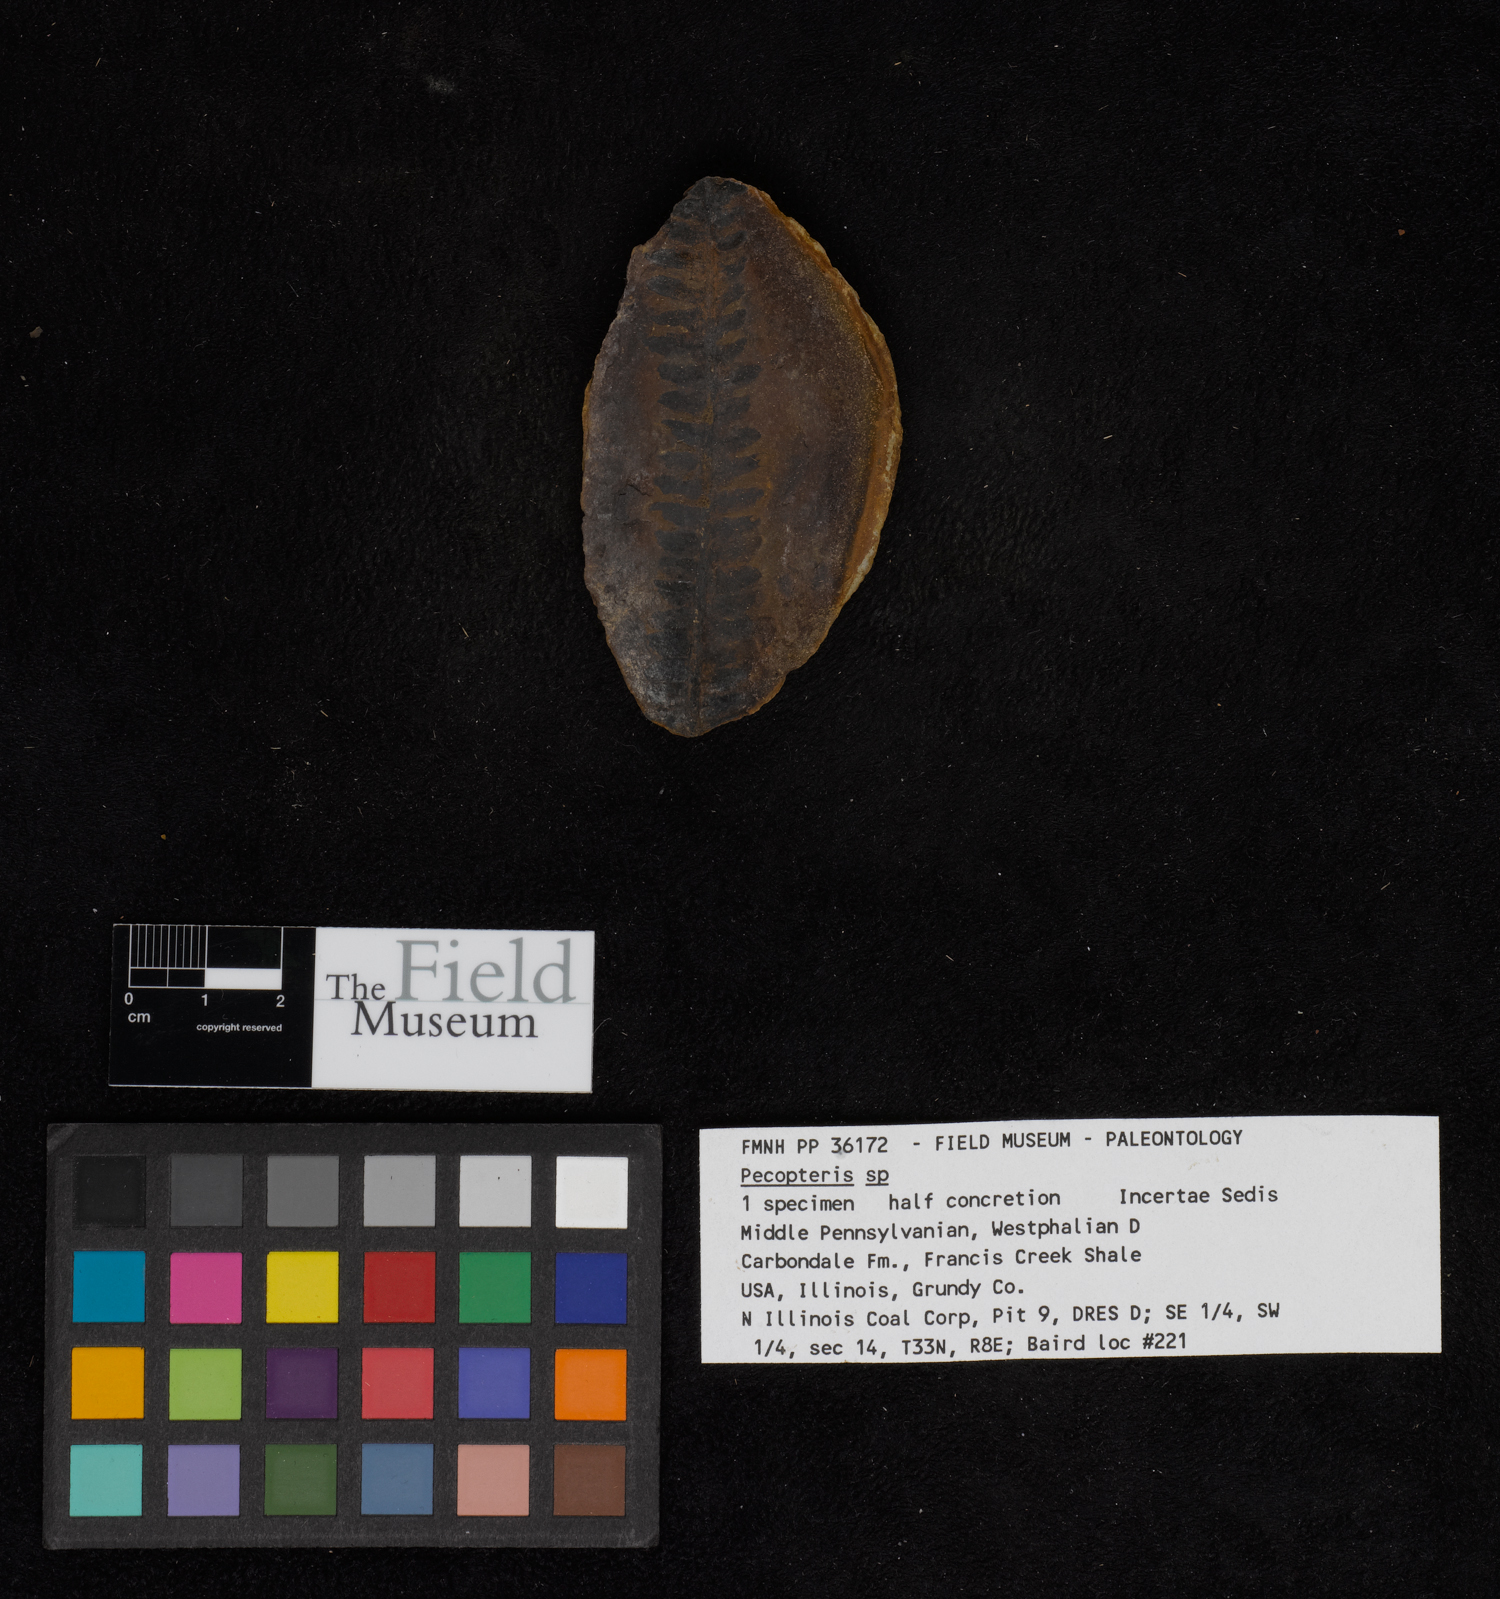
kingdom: Plantae
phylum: Tracheophyta
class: Polypodiopsida
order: Marattiales
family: Asterothecaceae
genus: Pecopteris
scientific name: Pecopteris
